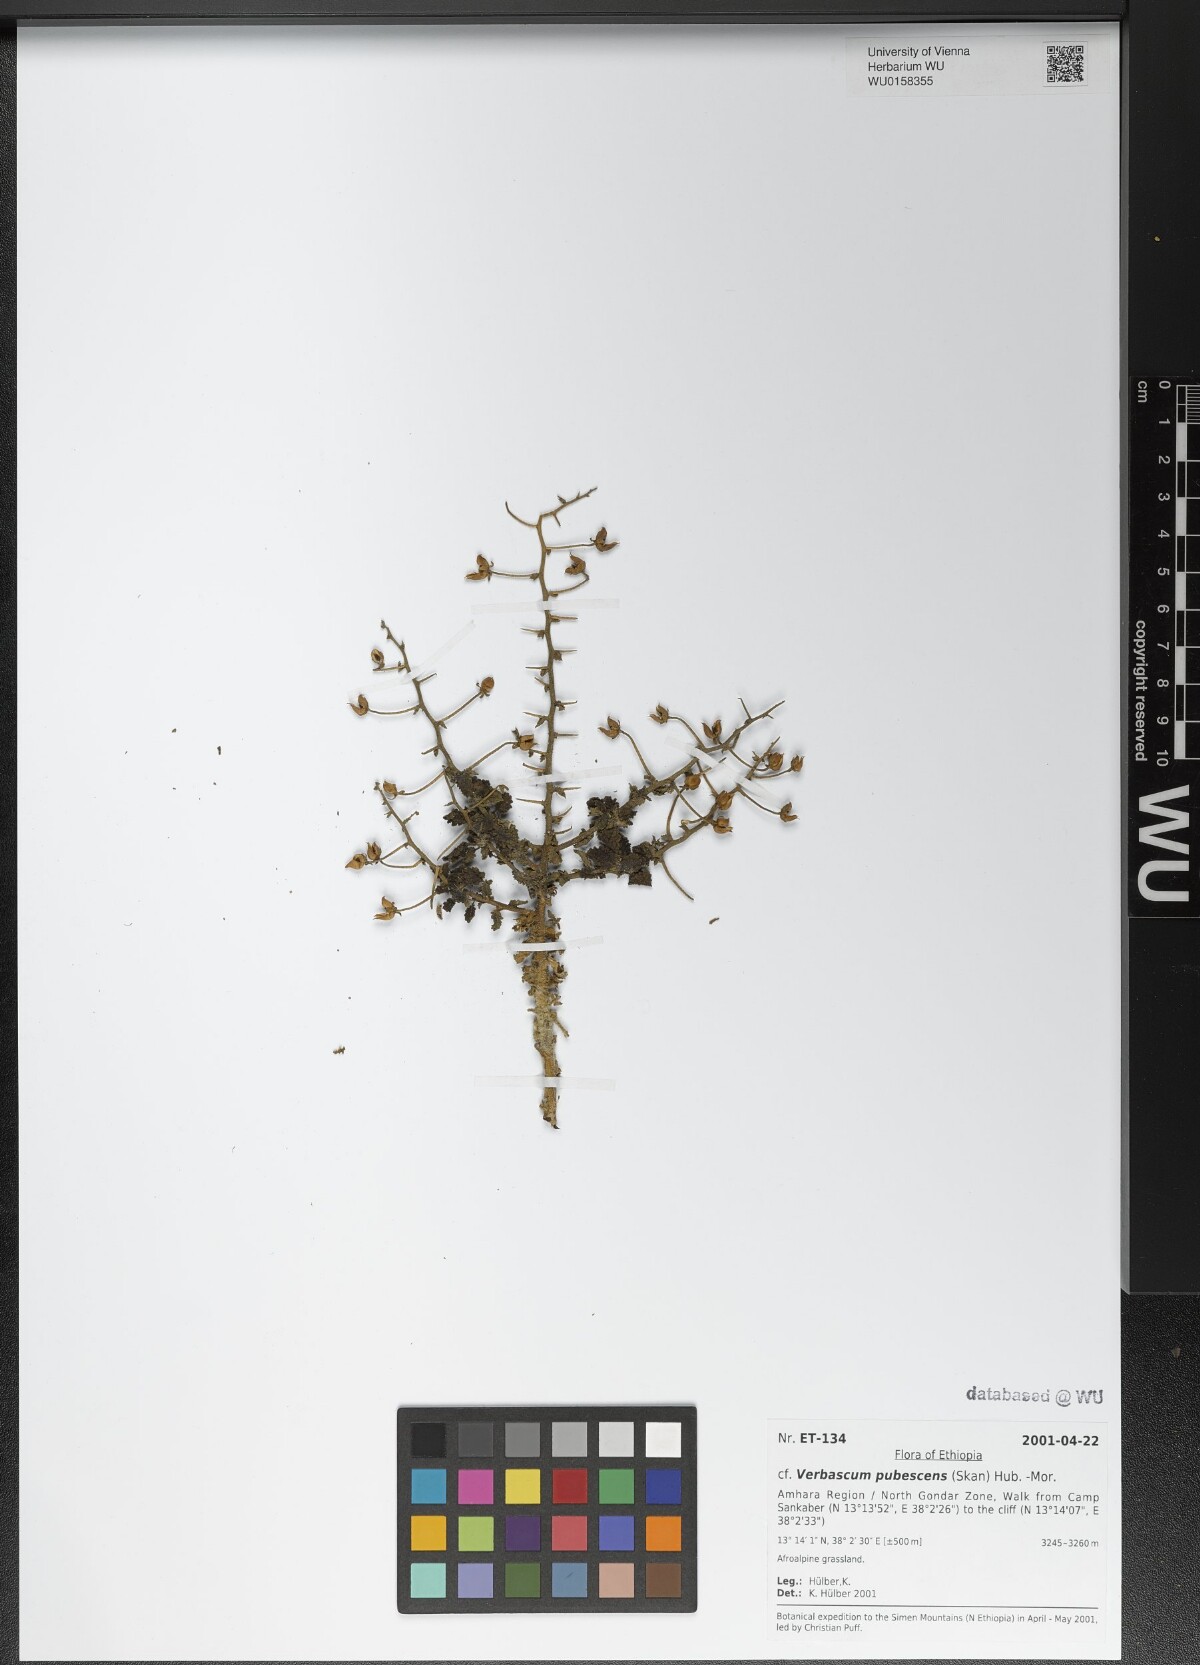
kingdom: Plantae
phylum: Tracheophyta
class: Magnoliopsida
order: Lamiales
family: Scrophulariaceae
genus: Verbascum
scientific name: Verbascum pubescens
